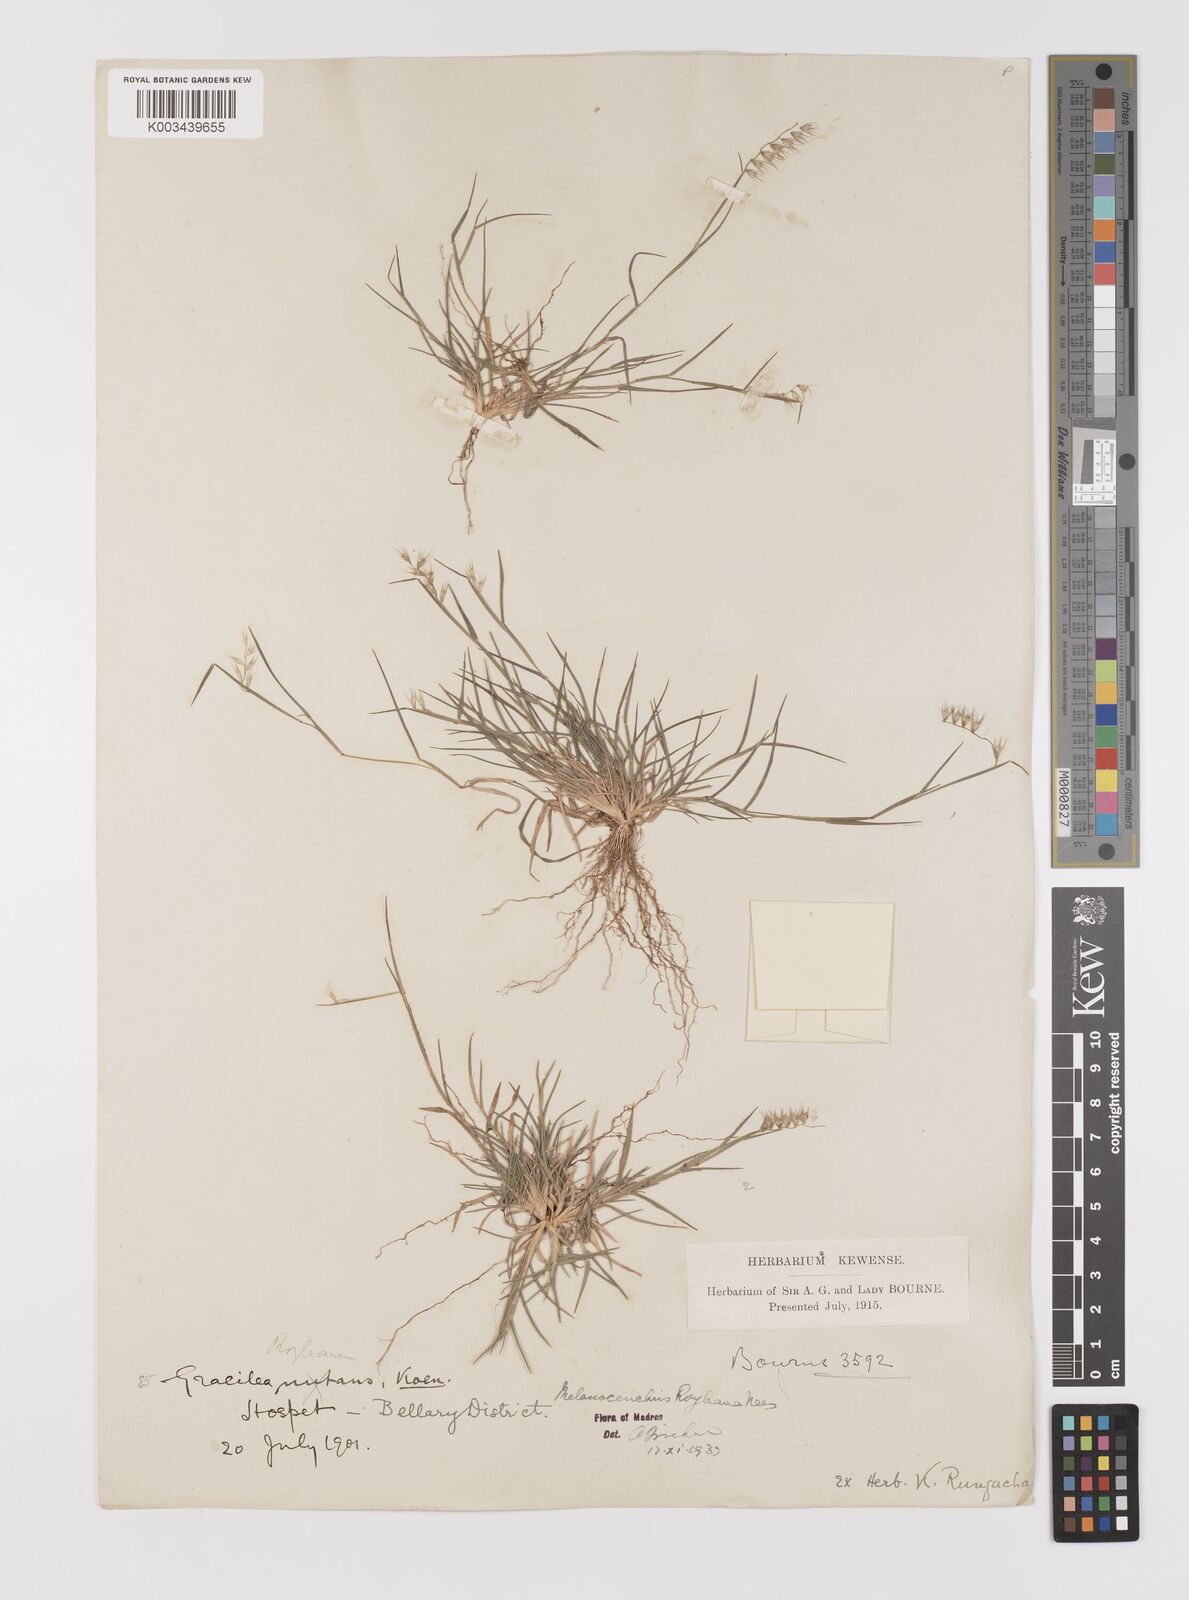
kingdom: Plantae
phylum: Tracheophyta
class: Liliopsida
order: Poales
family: Poaceae
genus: Melanocenchris
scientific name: Melanocenchris jacquemontii
